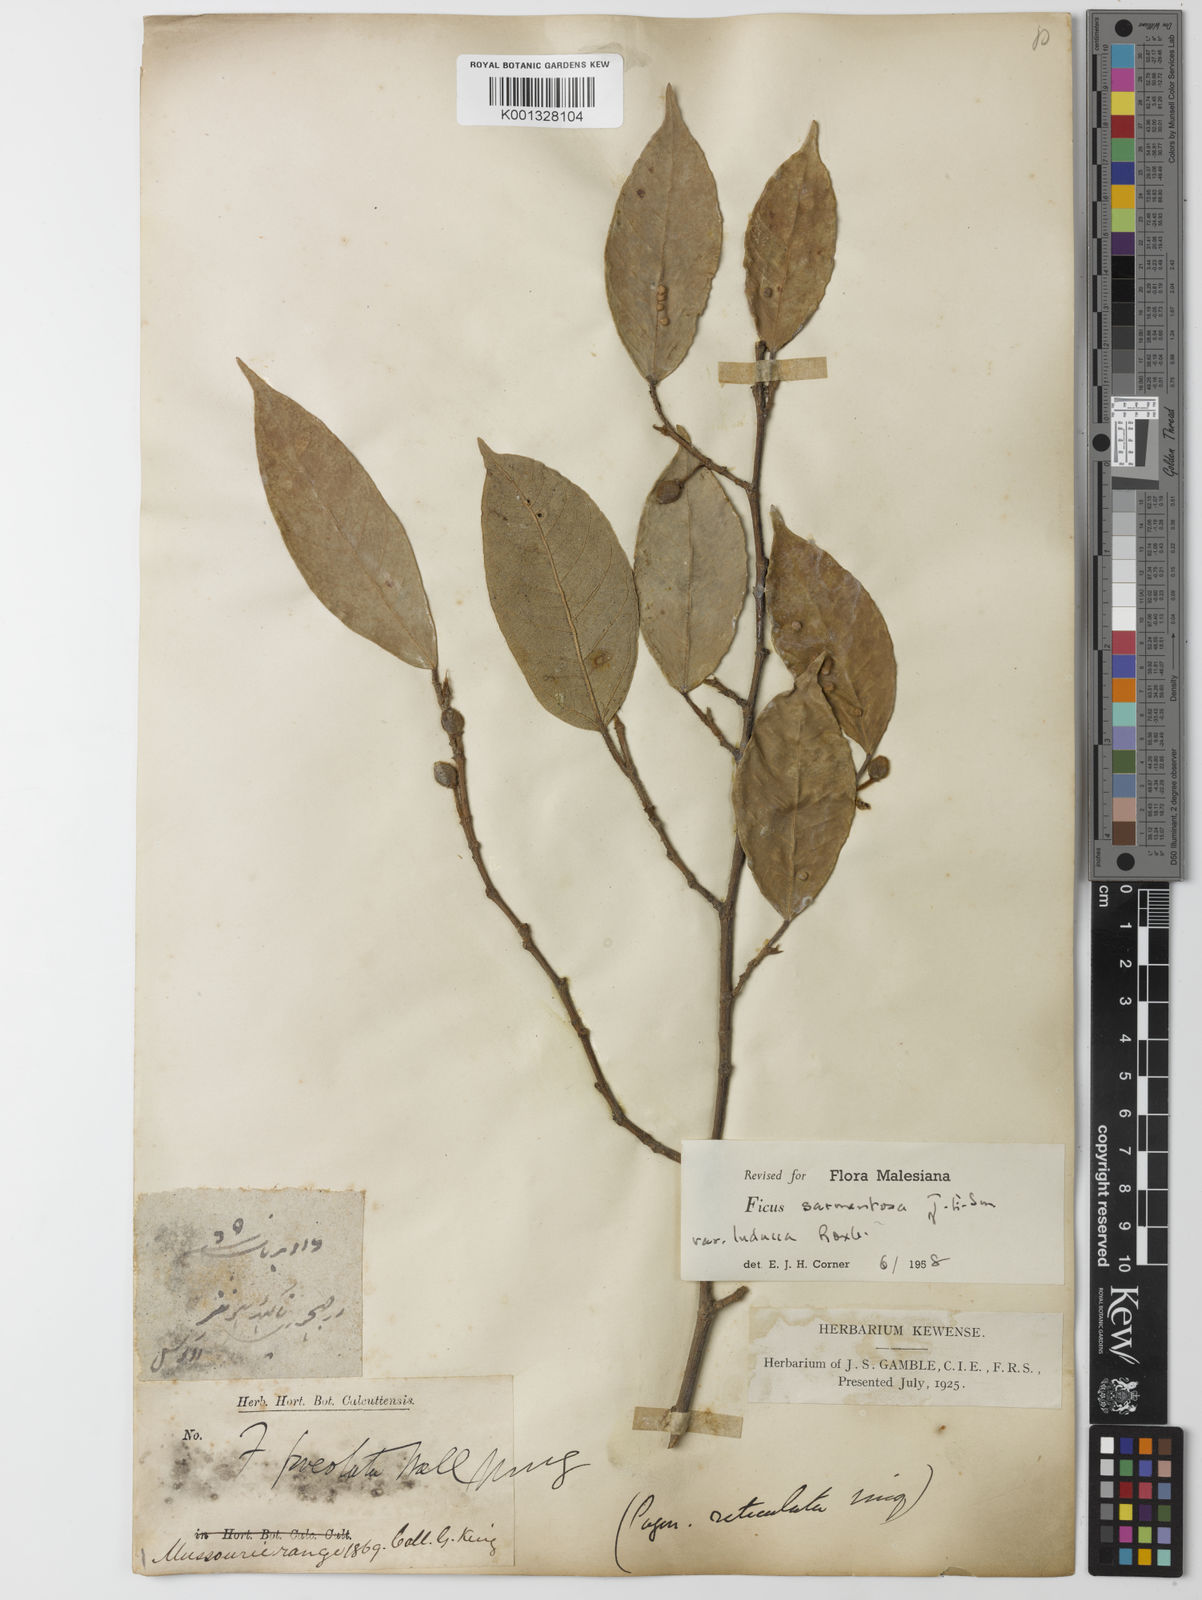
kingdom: Plantae
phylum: Tracheophyta
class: Magnoliopsida
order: Rosales
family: Moraceae
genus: Ficus
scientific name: Ficus sarmentosa
